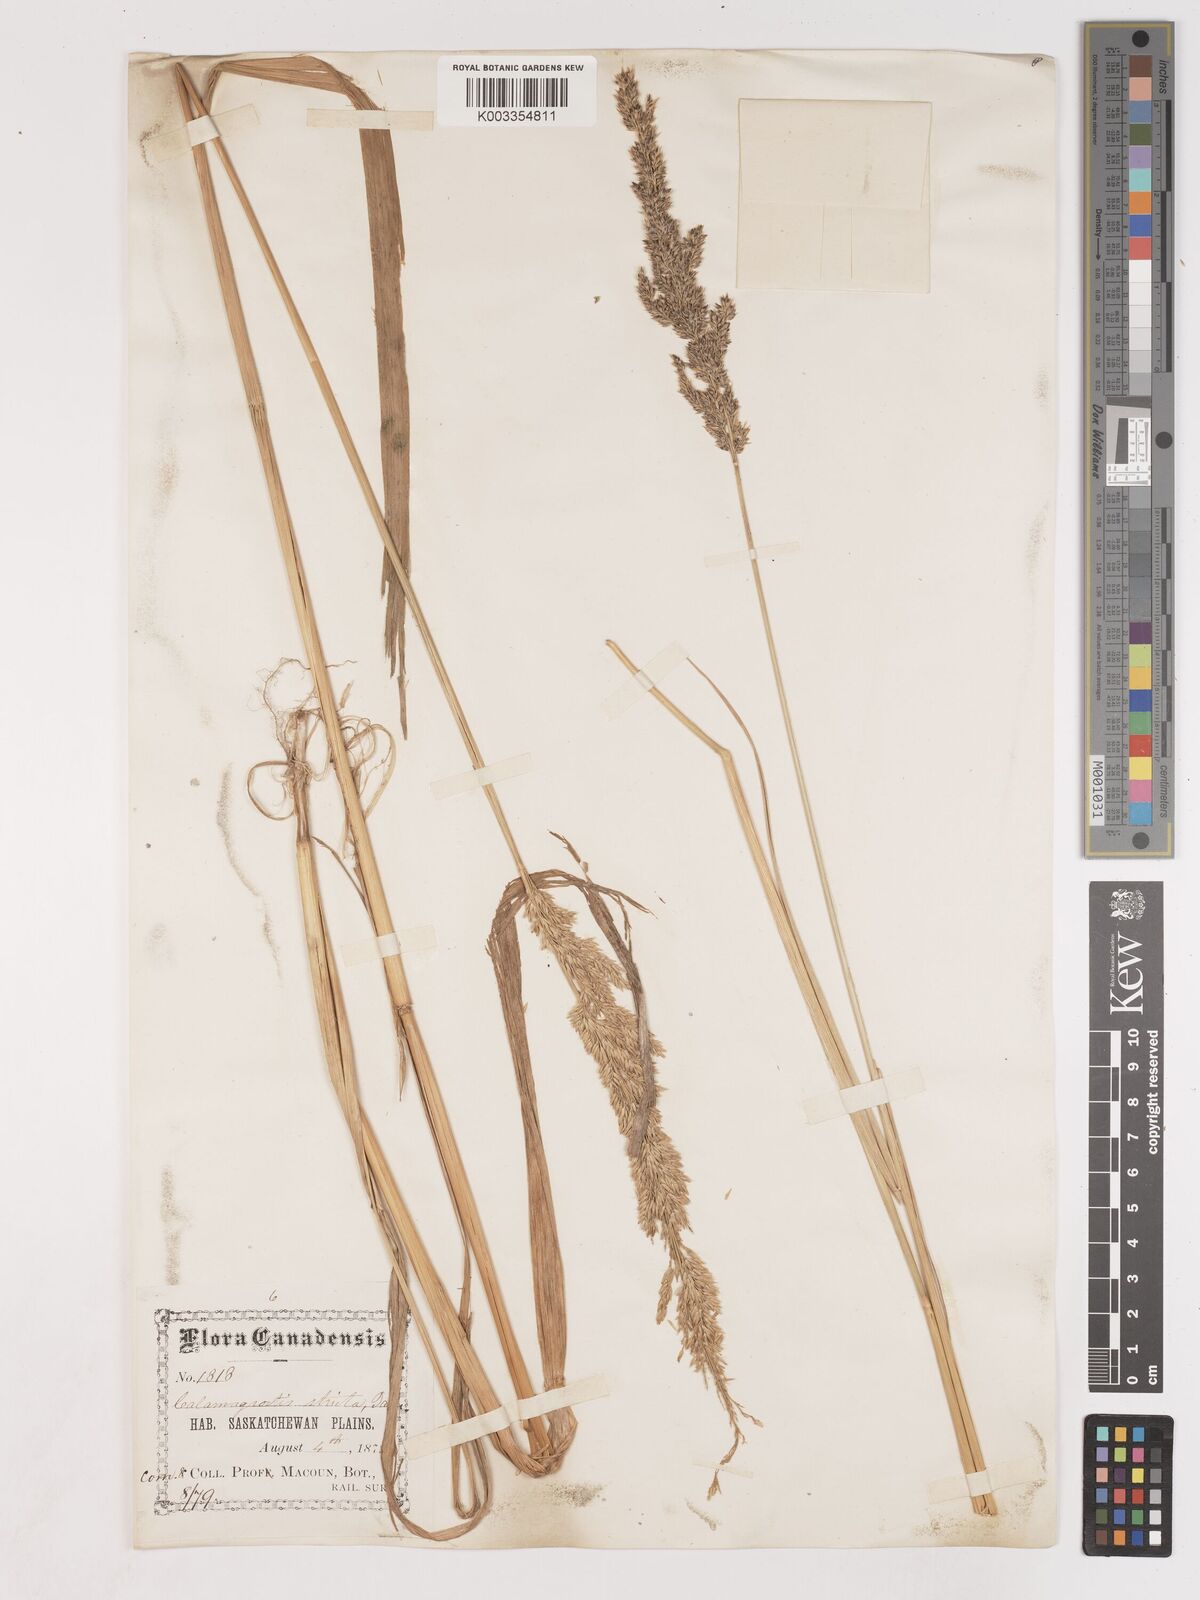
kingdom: Plantae
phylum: Tracheophyta
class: Liliopsida
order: Poales
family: Poaceae
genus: Calamagrostis
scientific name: Calamagrostis
